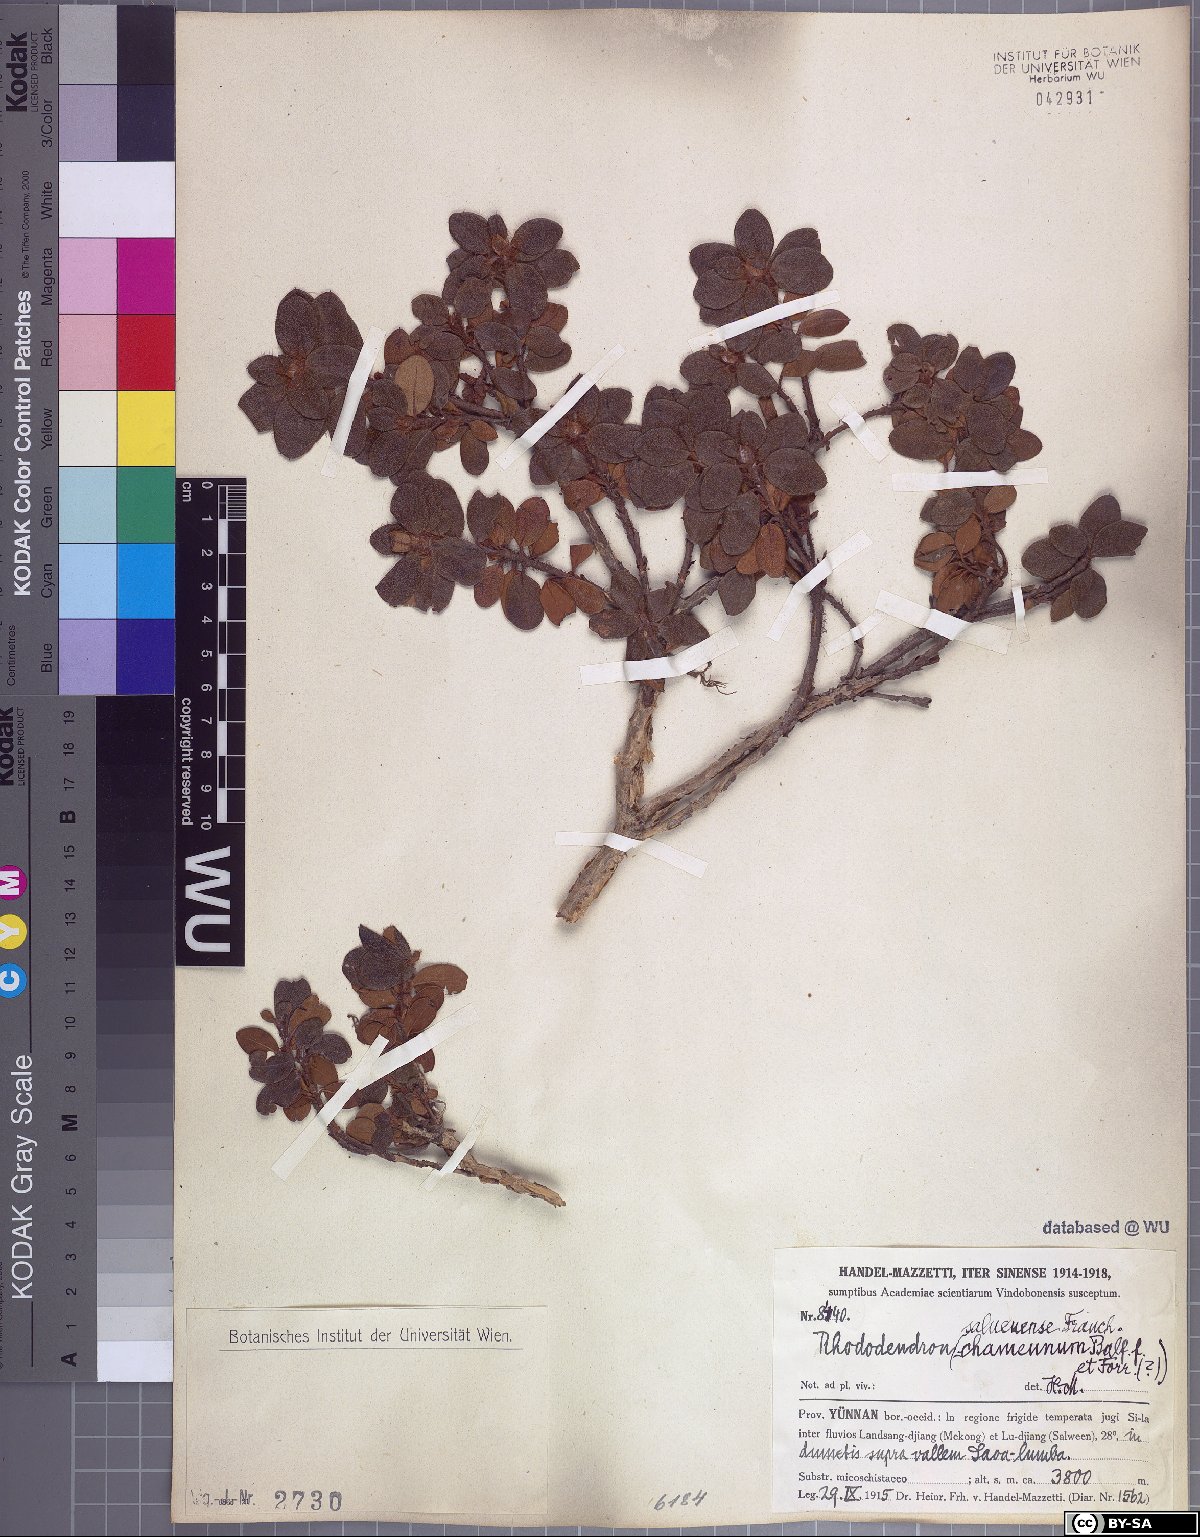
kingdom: Plantae
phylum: Tracheophyta
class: Magnoliopsida
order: Ericales
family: Ericaceae
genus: Rhododendron
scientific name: Rhododendron saluenense
